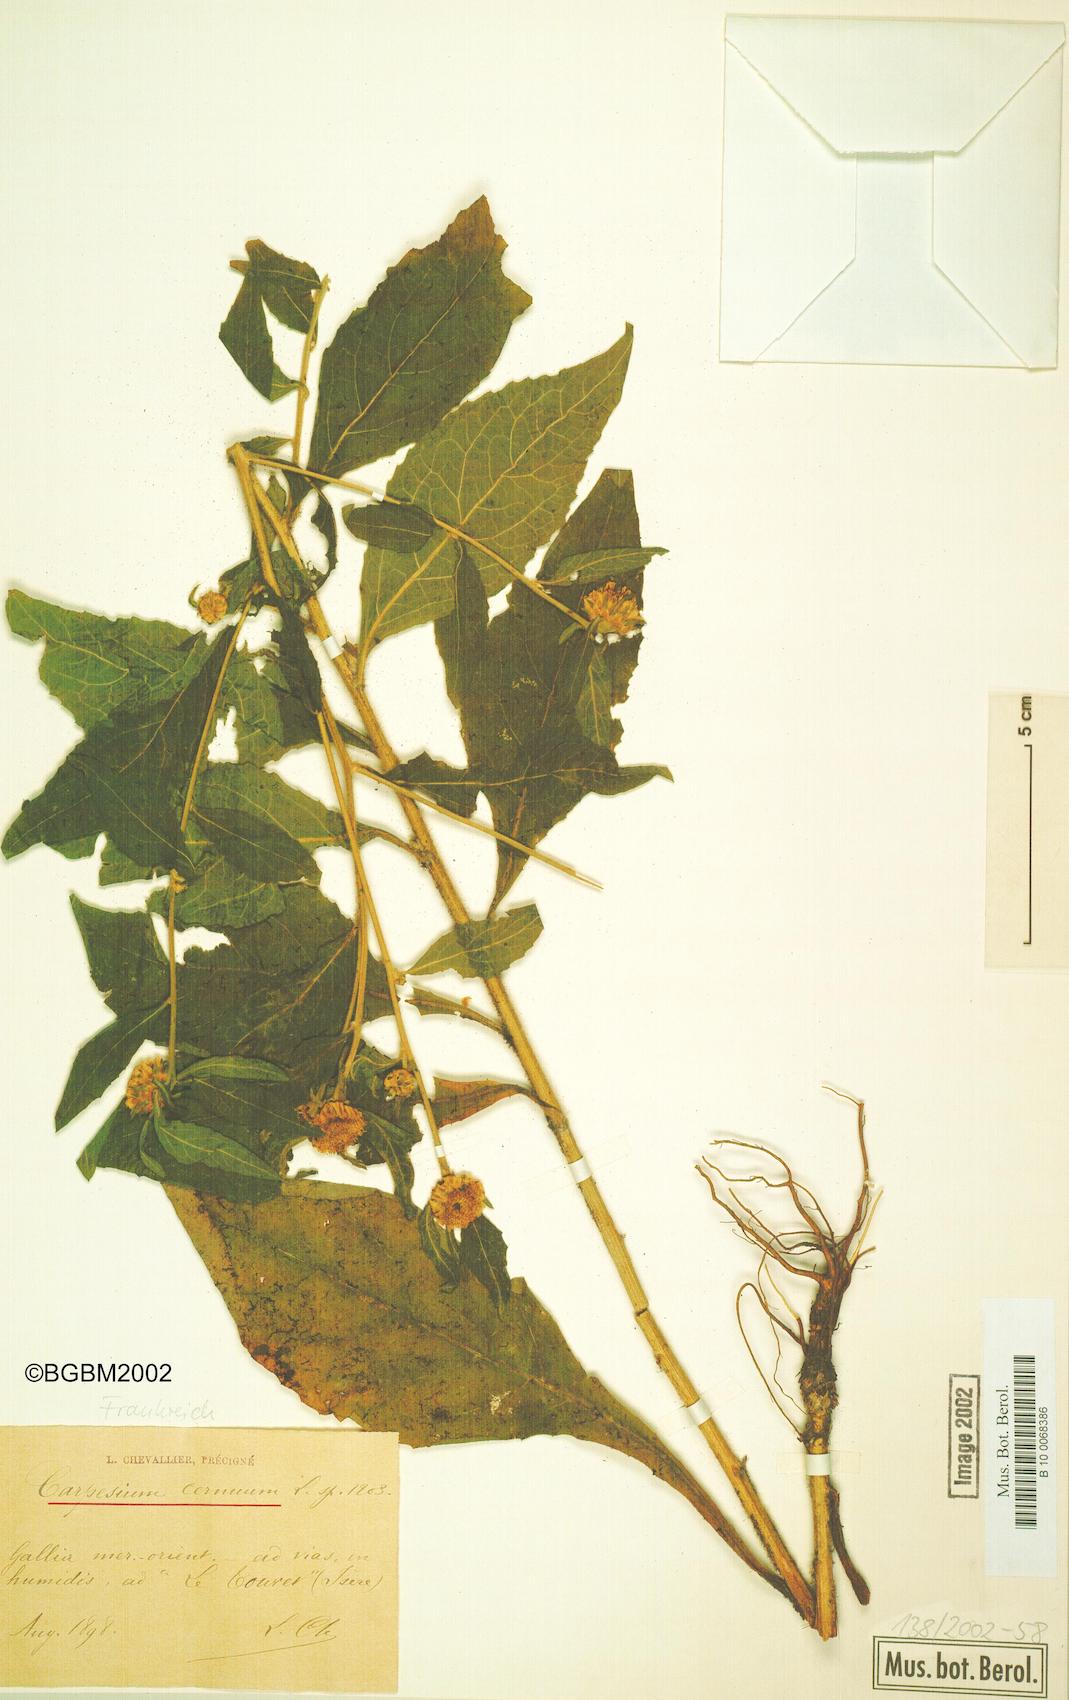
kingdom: Plantae
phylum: Tracheophyta
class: Magnoliopsida
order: Asterales
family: Asteraceae
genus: Carpesium
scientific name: Carpesium cernuum
